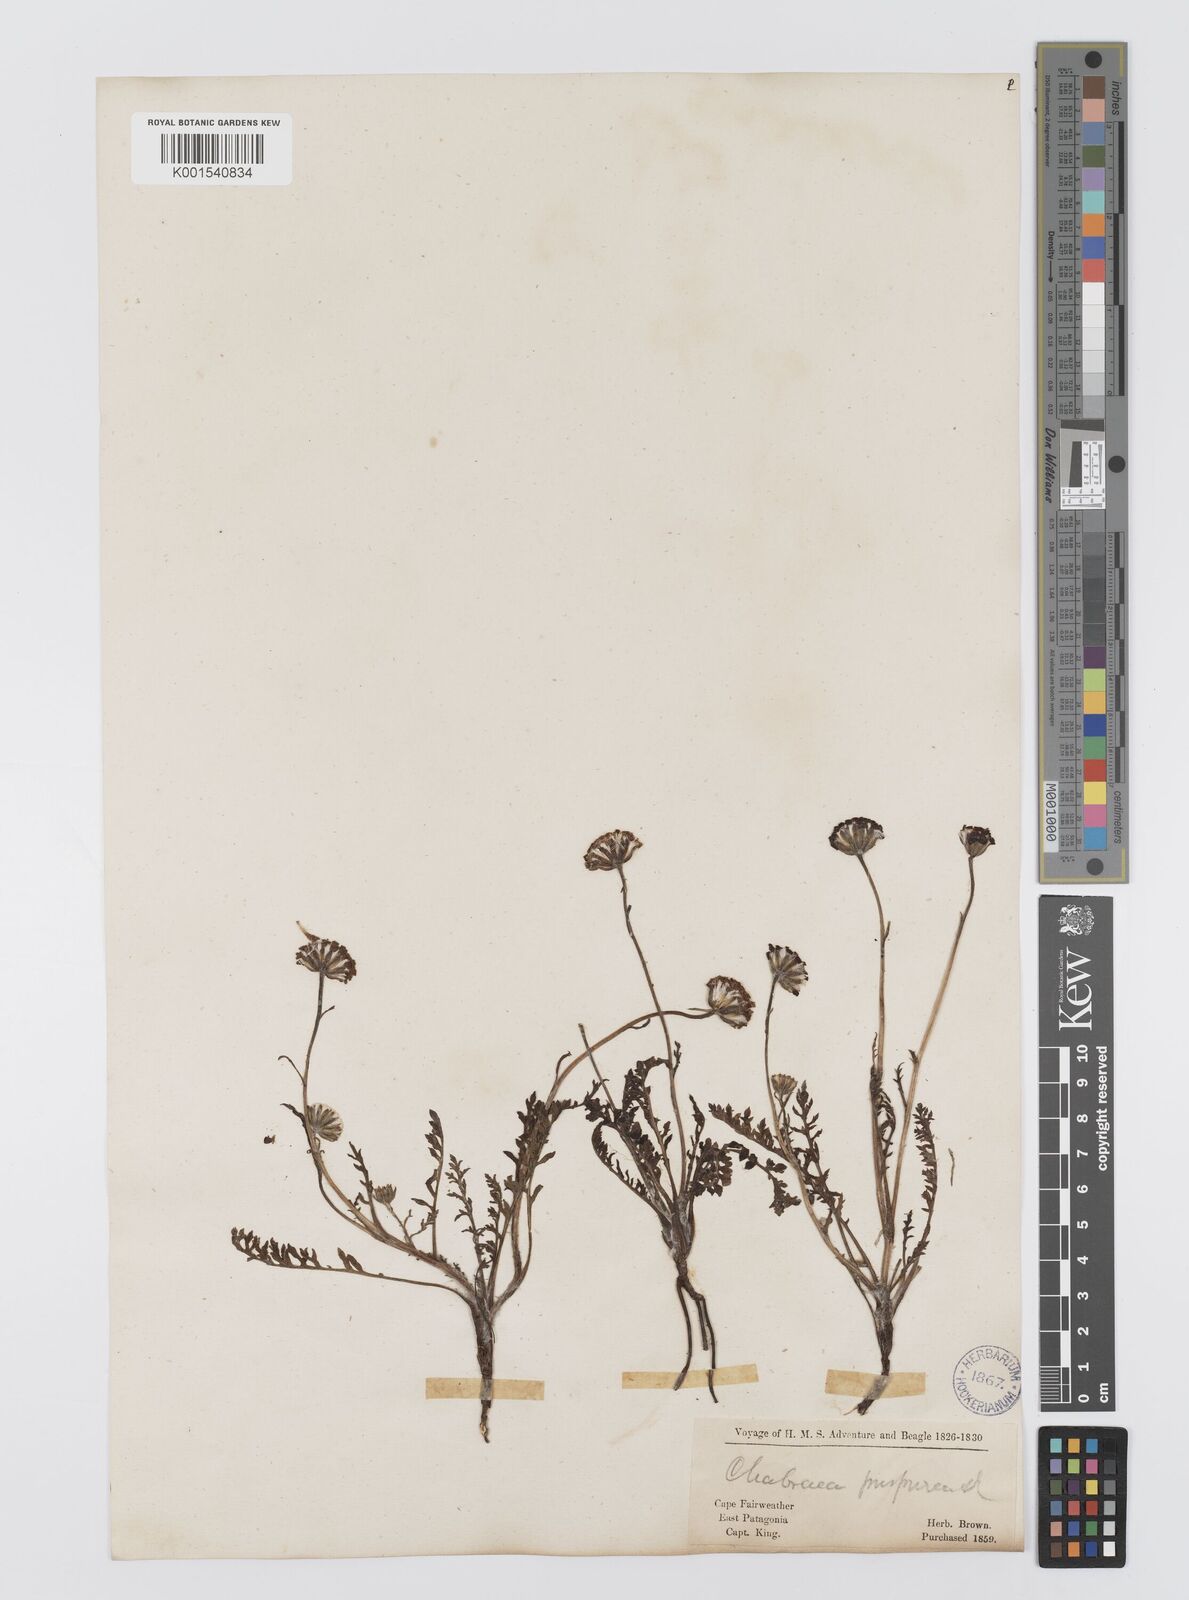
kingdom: Plantae
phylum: Tracheophyta
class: Magnoliopsida
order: Asterales
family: Asteraceae
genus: Leucheria
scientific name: Leucheria purpurea
